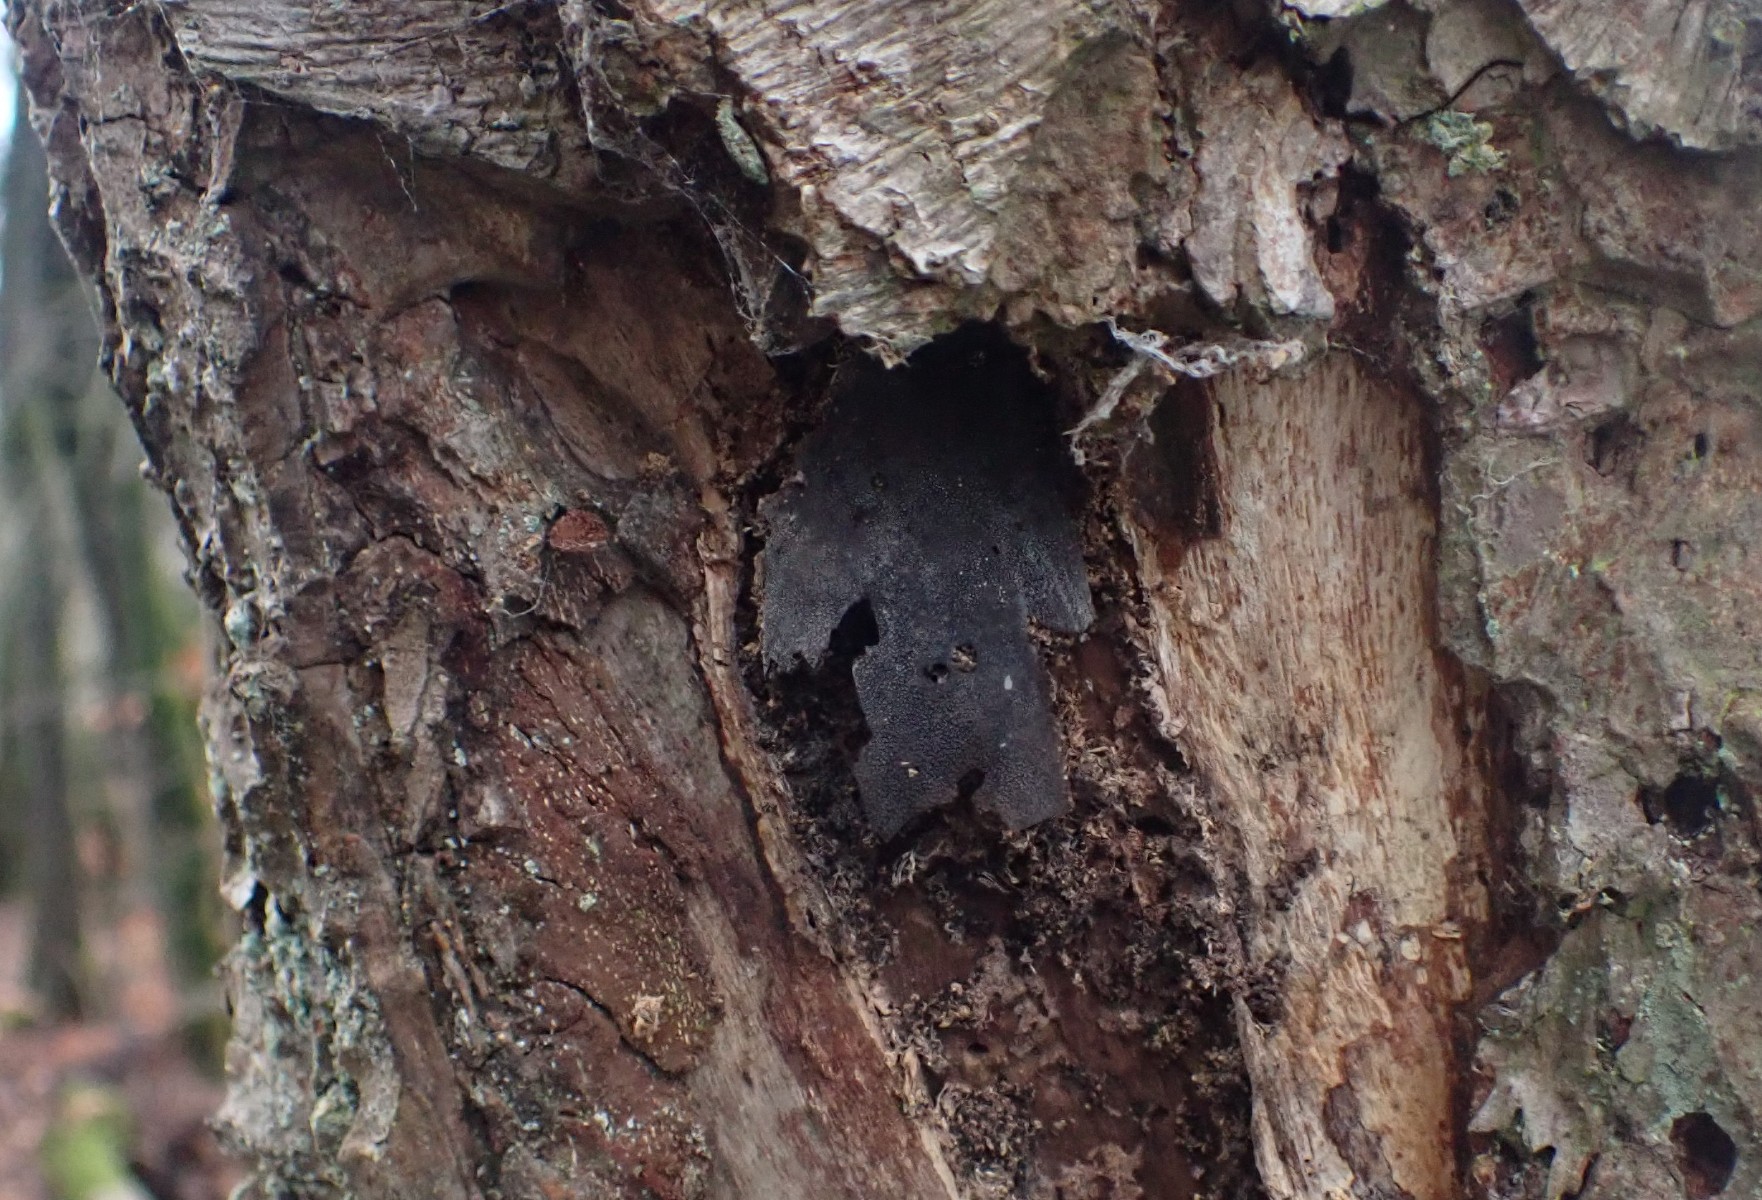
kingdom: Fungi
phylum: Ascomycota
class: Sordariomycetes
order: Boliniales
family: Boliniaceae
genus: Camarops
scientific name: Camarops polysperma
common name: elle-kulsnegl
